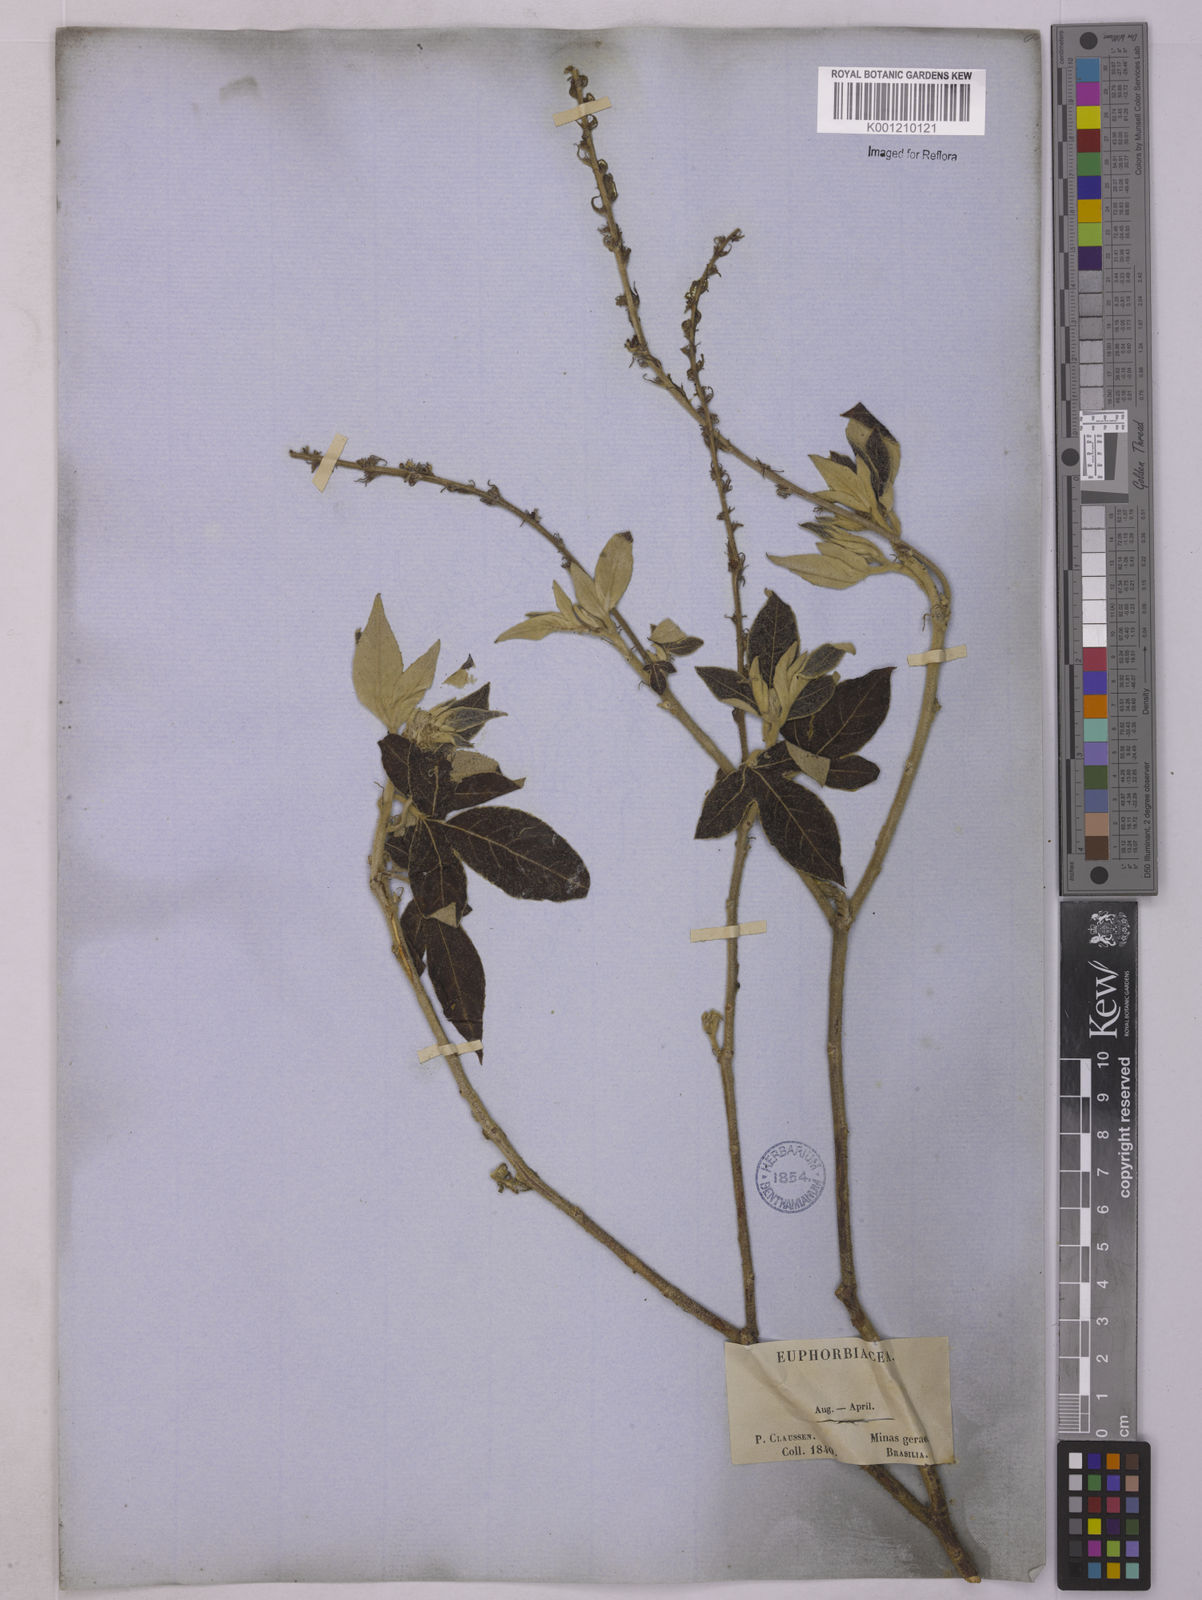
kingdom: Plantae
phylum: Tracheophyta
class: Magnoliopsida
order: Malpighiales
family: Euphorbiaceae
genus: Astraea
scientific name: Astraea
